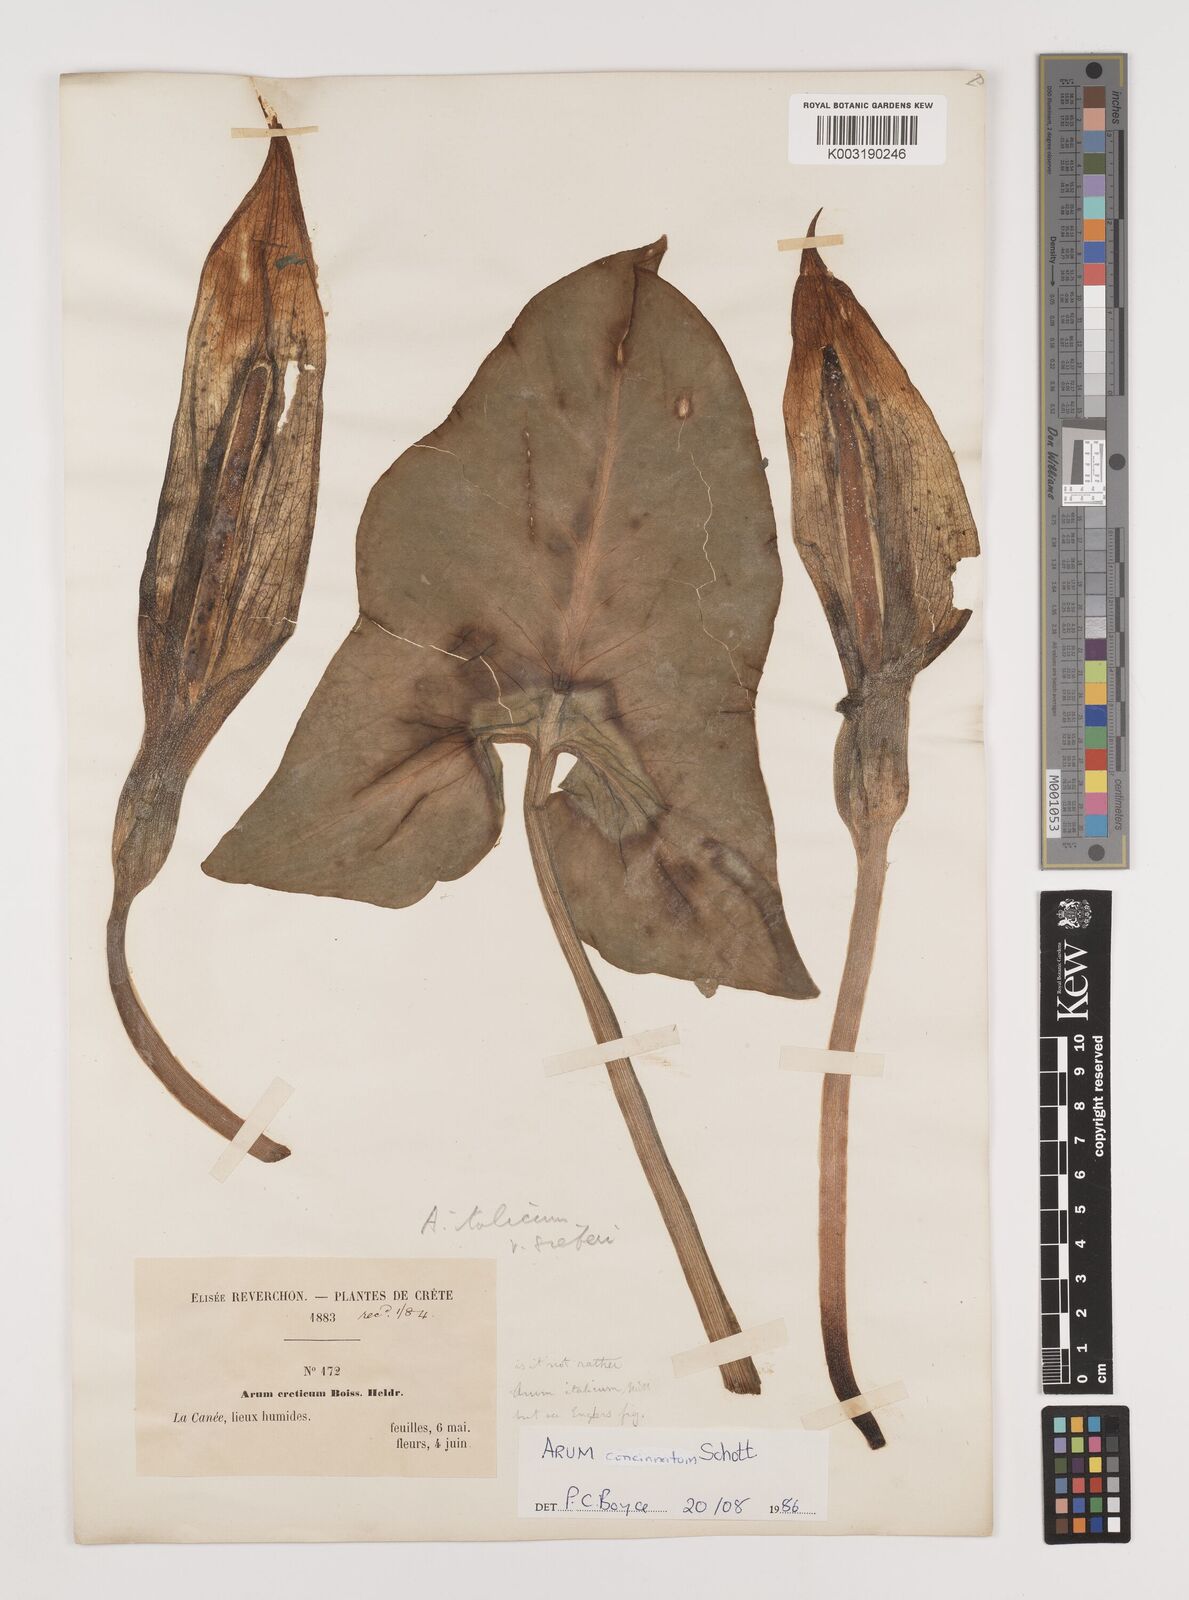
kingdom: Plantae
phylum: Tracheophyta
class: Liliopsida
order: Alismatales
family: Araceae
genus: Arum
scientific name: Arum concinnatum
